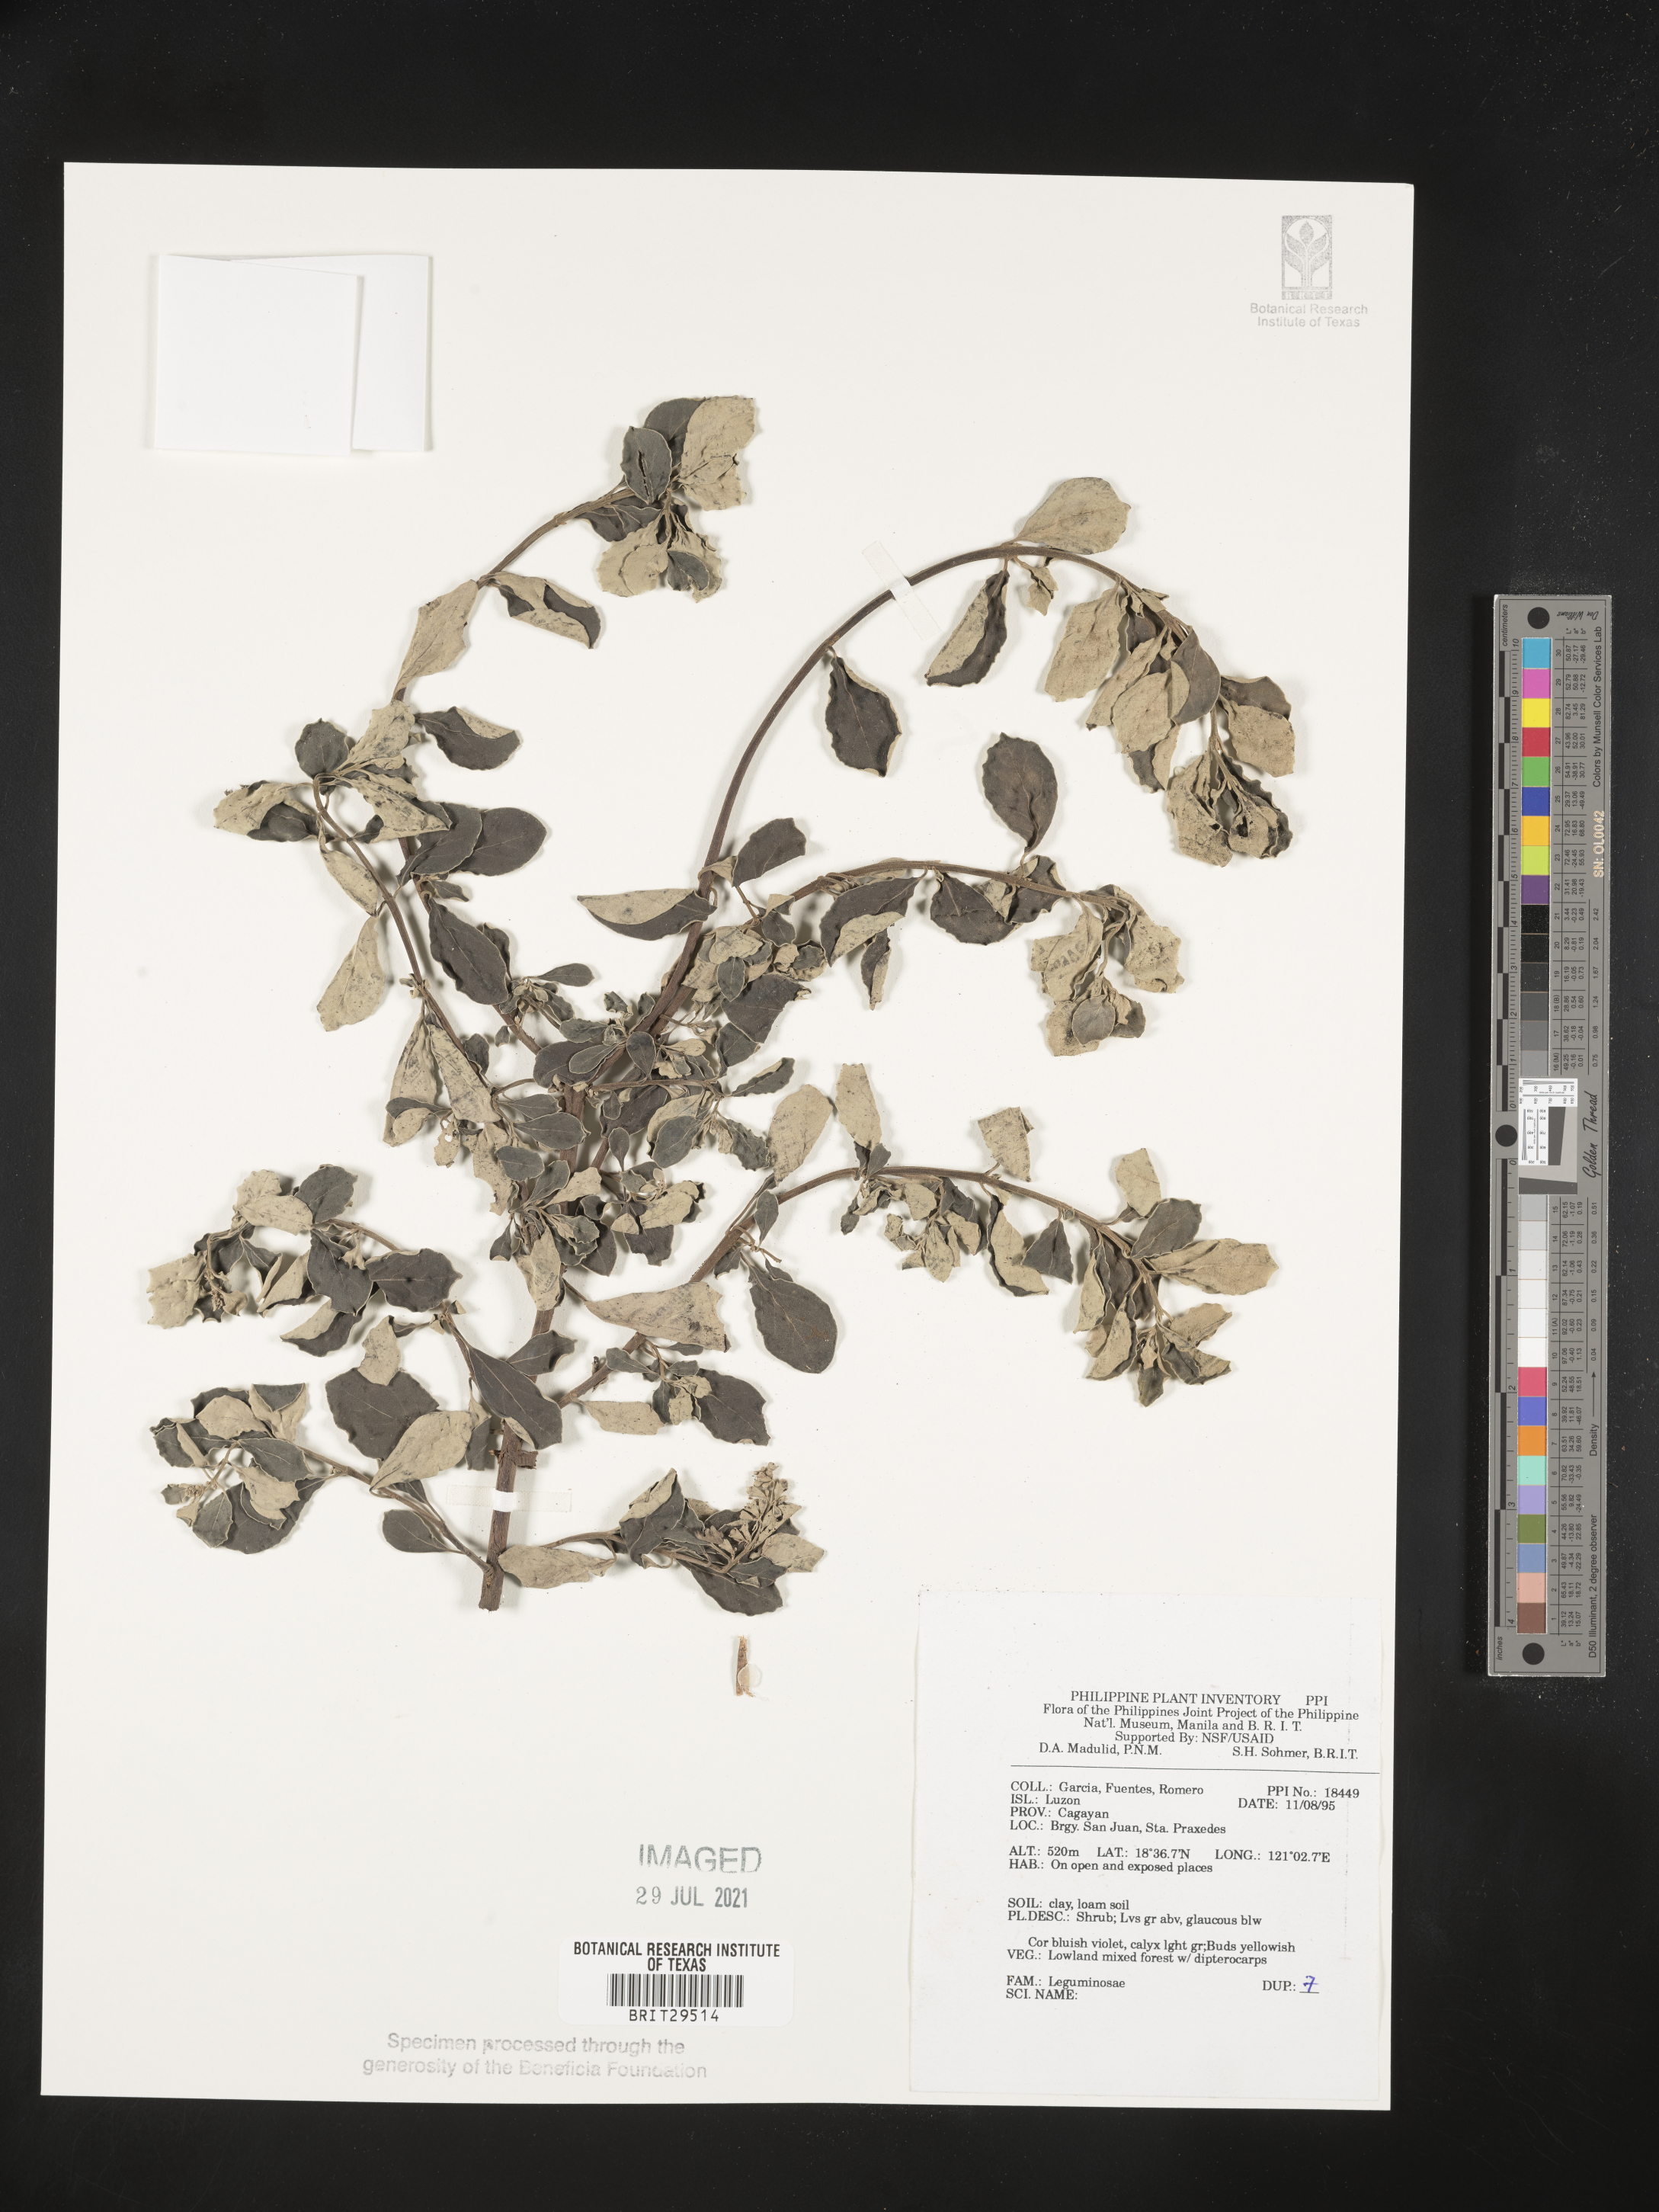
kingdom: Plantae
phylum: Tracheophyta
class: Magnoliopsida
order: Fabales
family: Fabaceae
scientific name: Fabaceae
